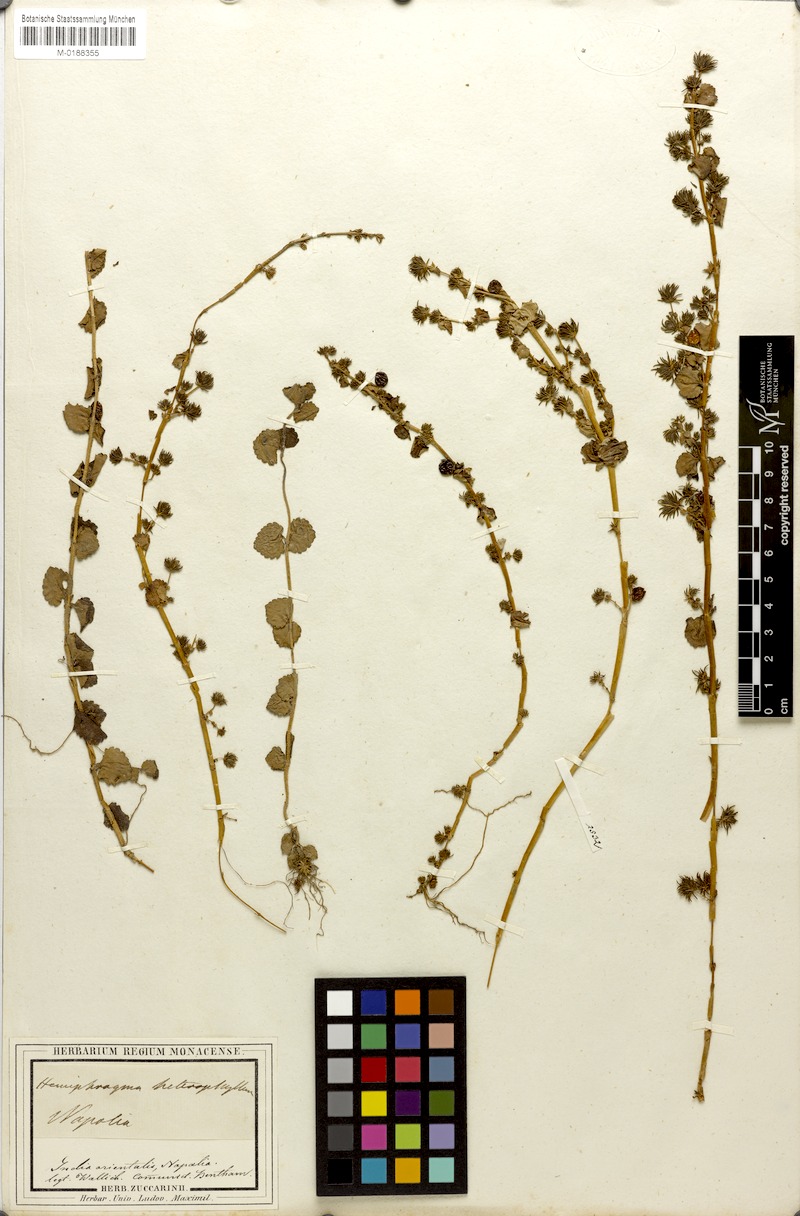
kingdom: Plantae
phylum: Tracheophyta
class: Magnoliopsida
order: Lamiales
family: Plantaginaceae
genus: Hemiphragma
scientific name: Hemiphragma heterophyllum
